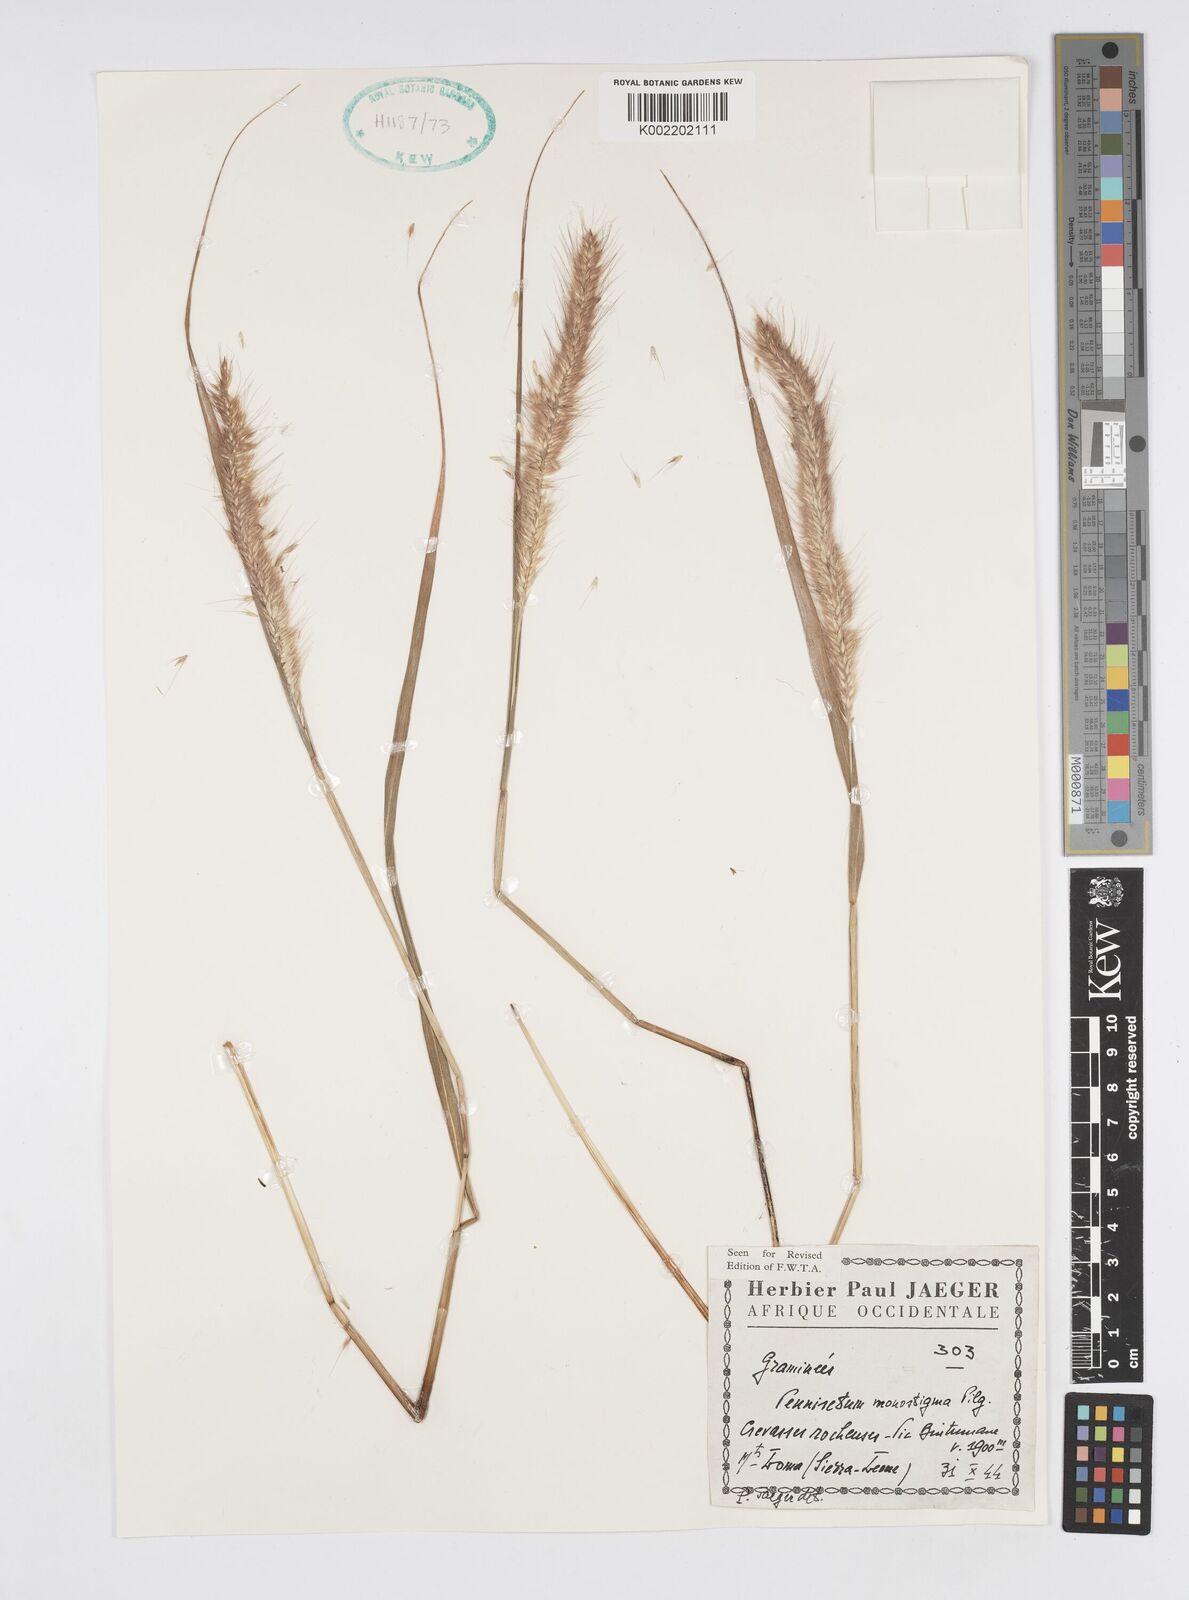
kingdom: Plantae
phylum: Tracheophyta
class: Liliopsida
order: Poales
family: Poaceae
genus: Cenchrus
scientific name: Cenchrus monostigma
